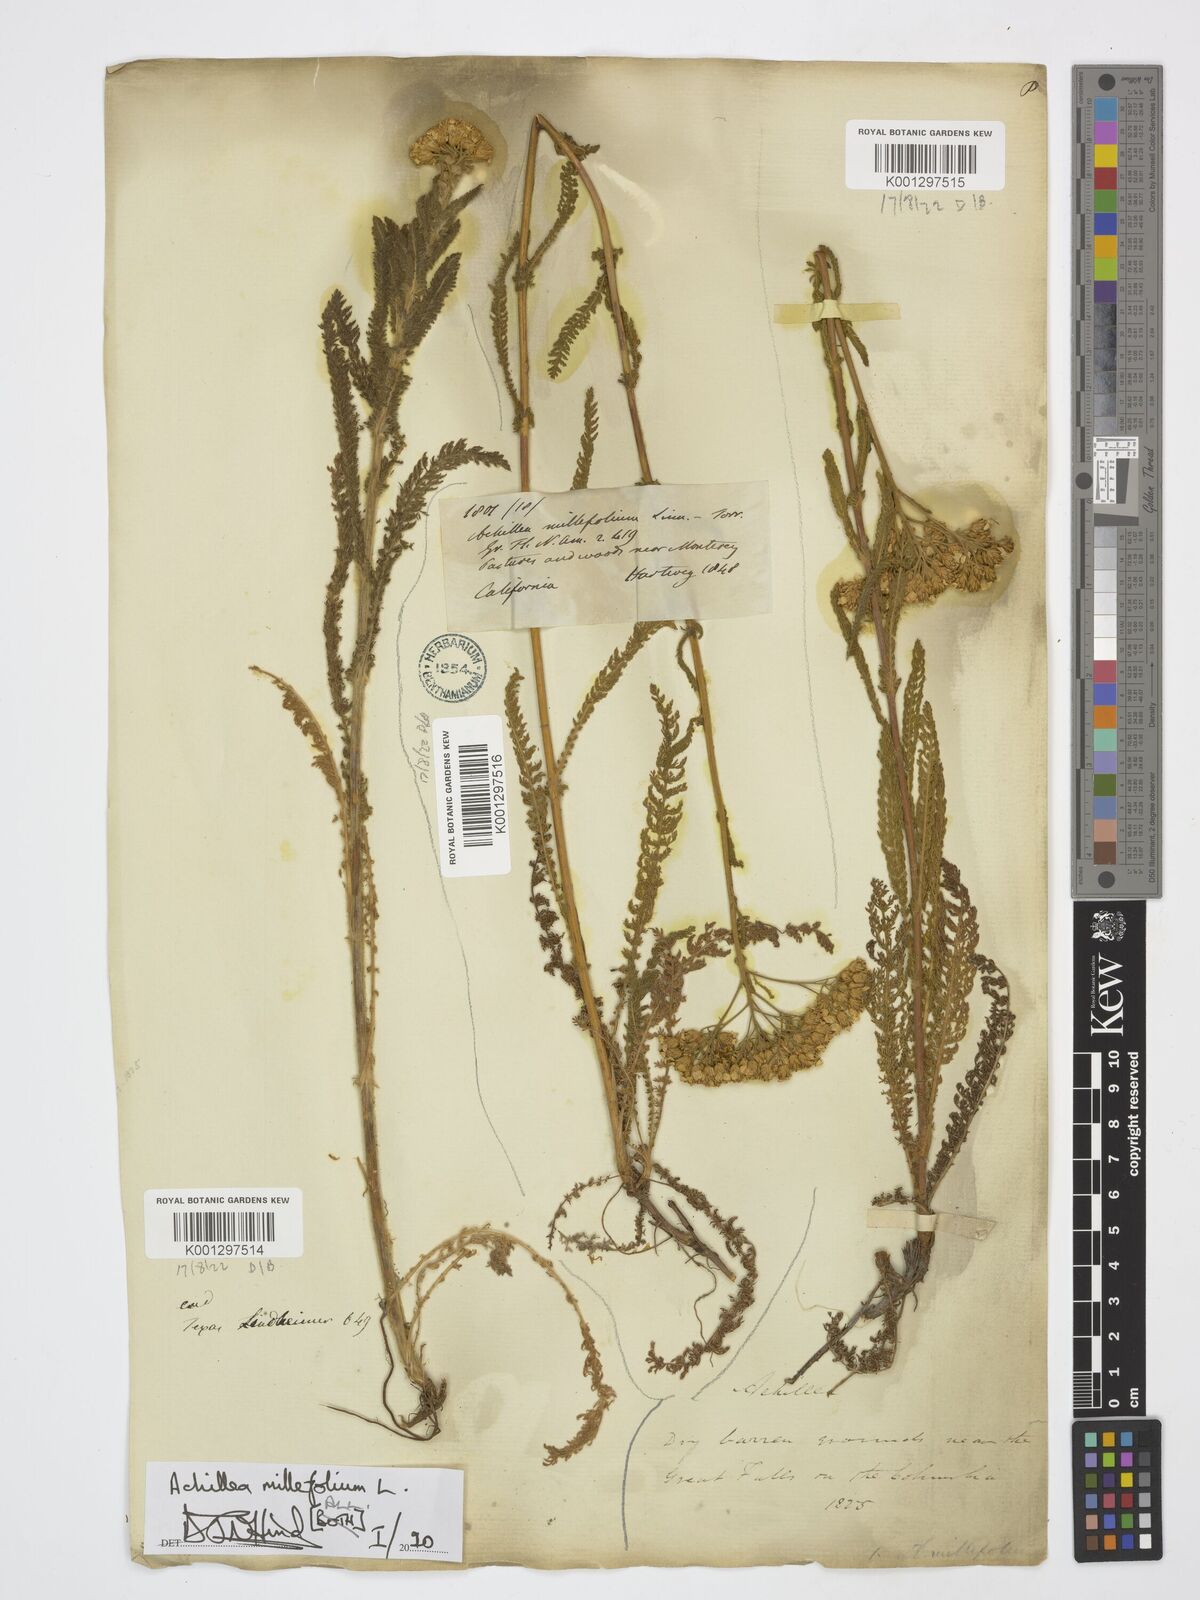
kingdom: Plantae
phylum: Tracheophyta
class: Magnoliopsida
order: Asterales
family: Asteraceae
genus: Achillea
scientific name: Achillea millefolium
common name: Yarrow
